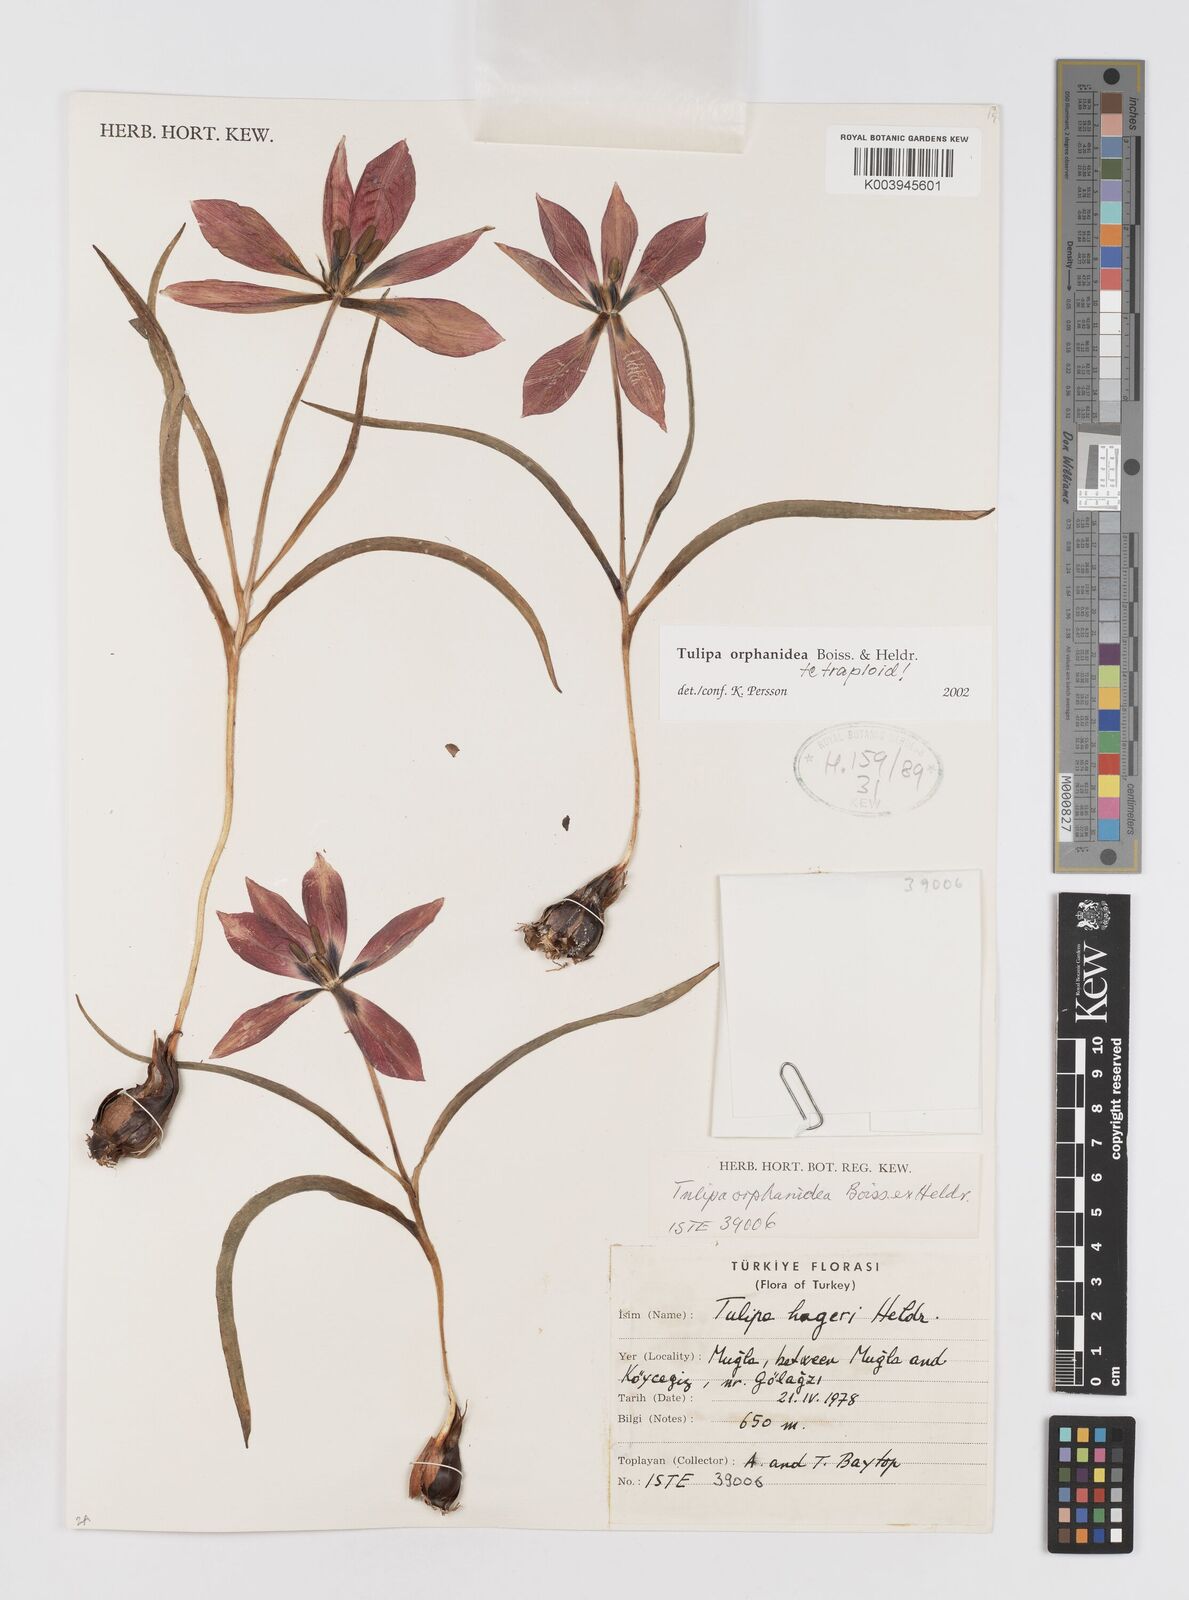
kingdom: Plantae
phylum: Tracheophyta
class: Liliopsida
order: Liliales
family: Liliaceae
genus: Tulipa
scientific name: Tulipa orphanidea
